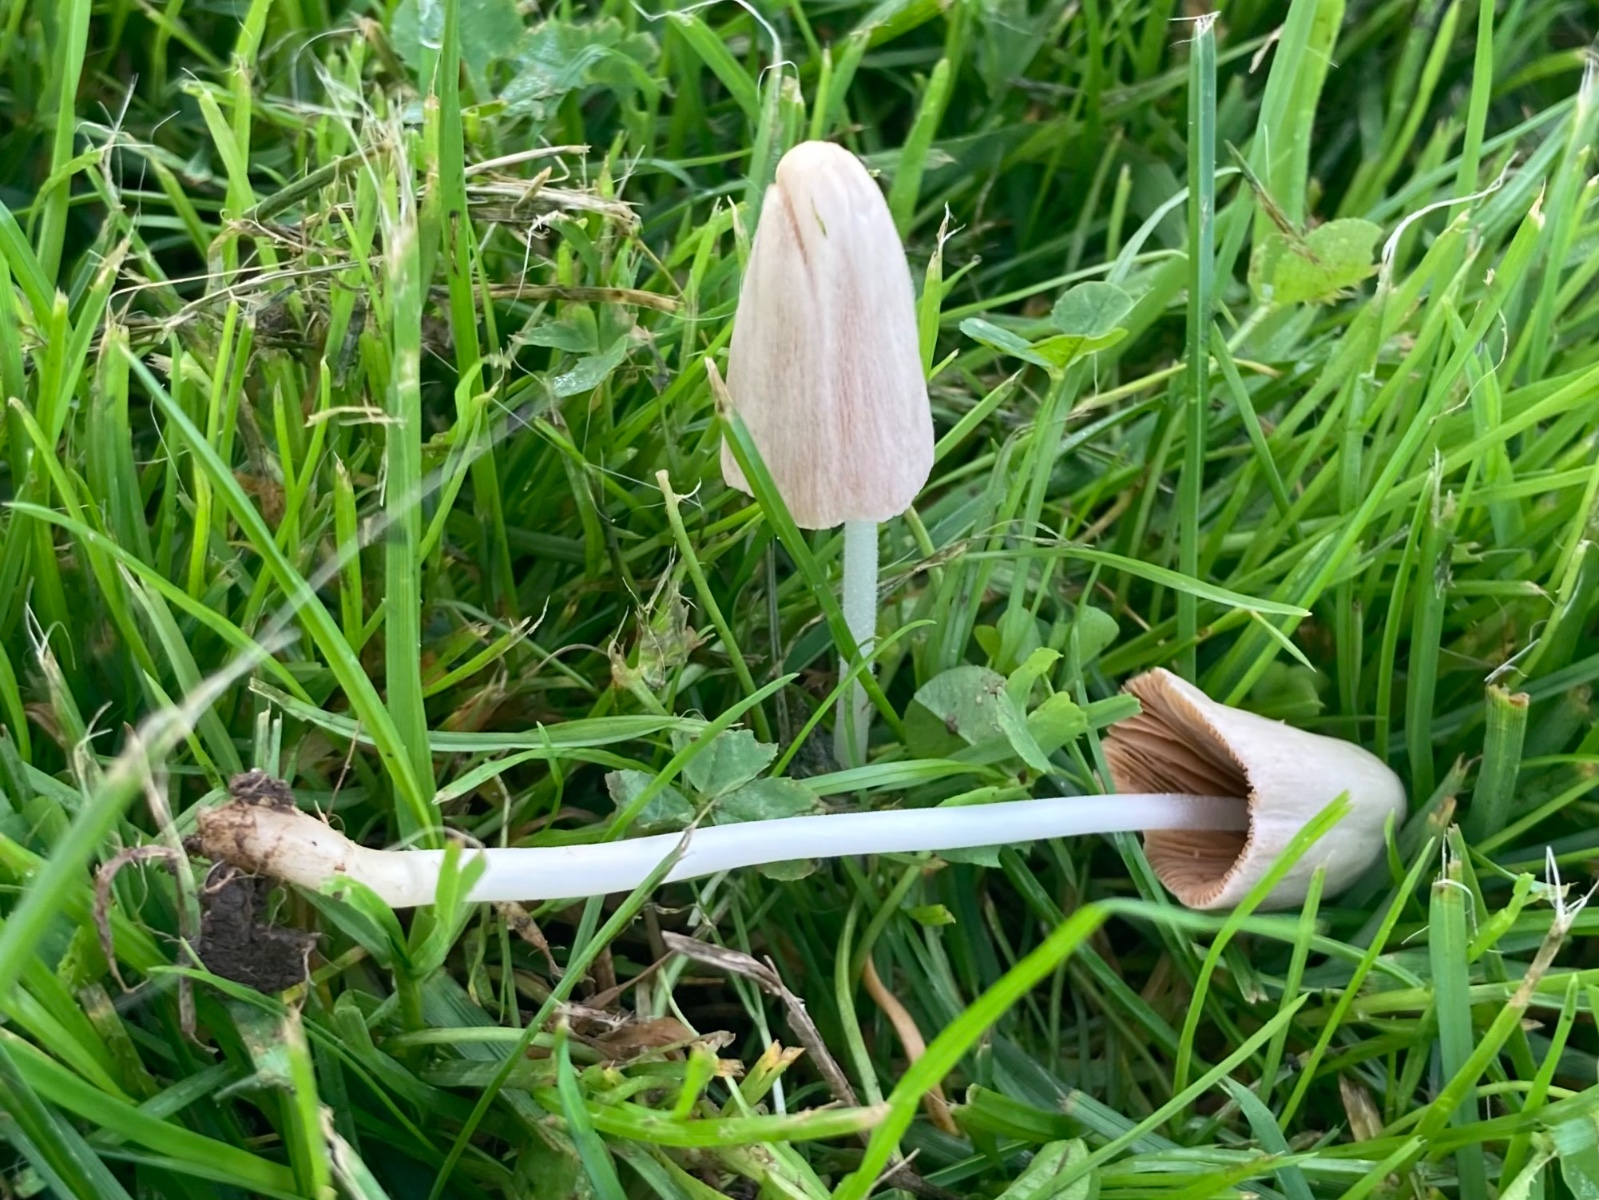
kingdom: Fungi
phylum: Basidiomycota
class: Agaricomycetes
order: Agaricales
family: Bolbitiaceae
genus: Conocybe
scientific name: Conocybe apala
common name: mælkehvid keglehat
